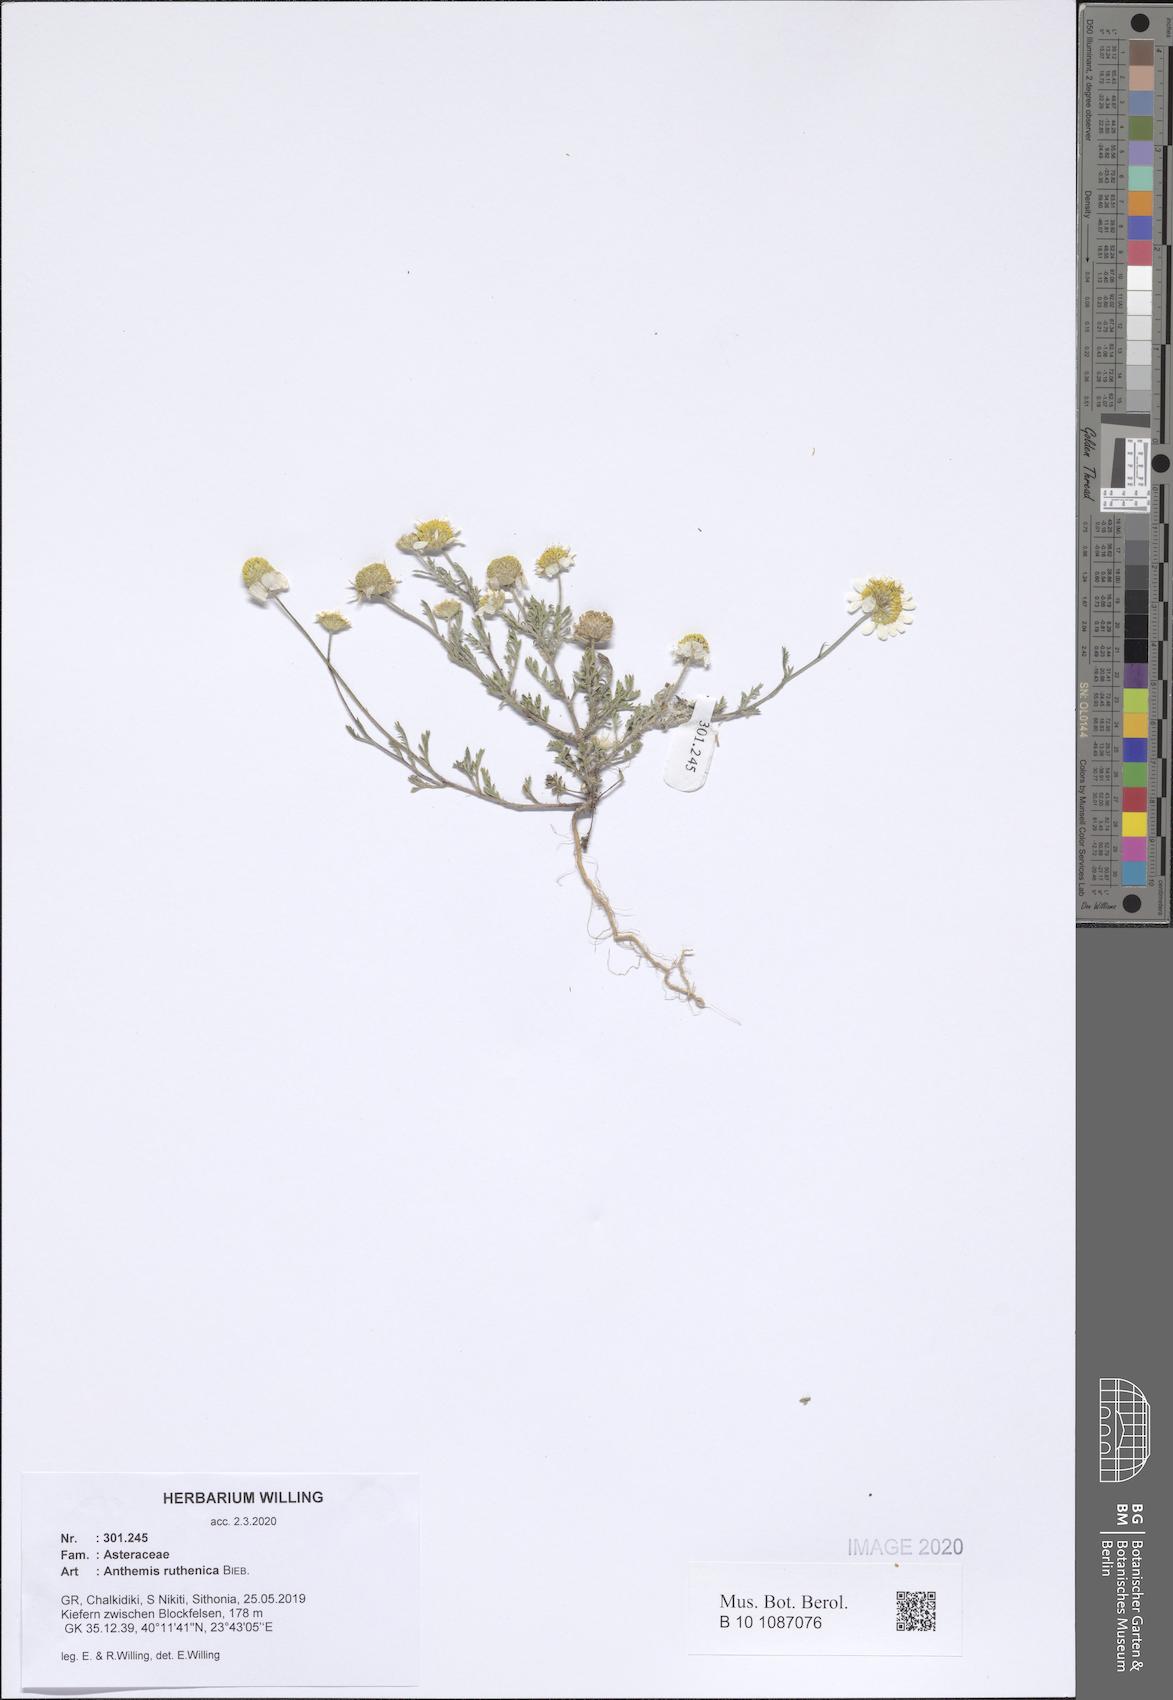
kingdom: Plantae
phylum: Tracheophyta
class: Magnoliopsida
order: Asterales
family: Asteraceae
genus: Anthemis
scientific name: Anthemis ruthenica
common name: Eastern chamomile
